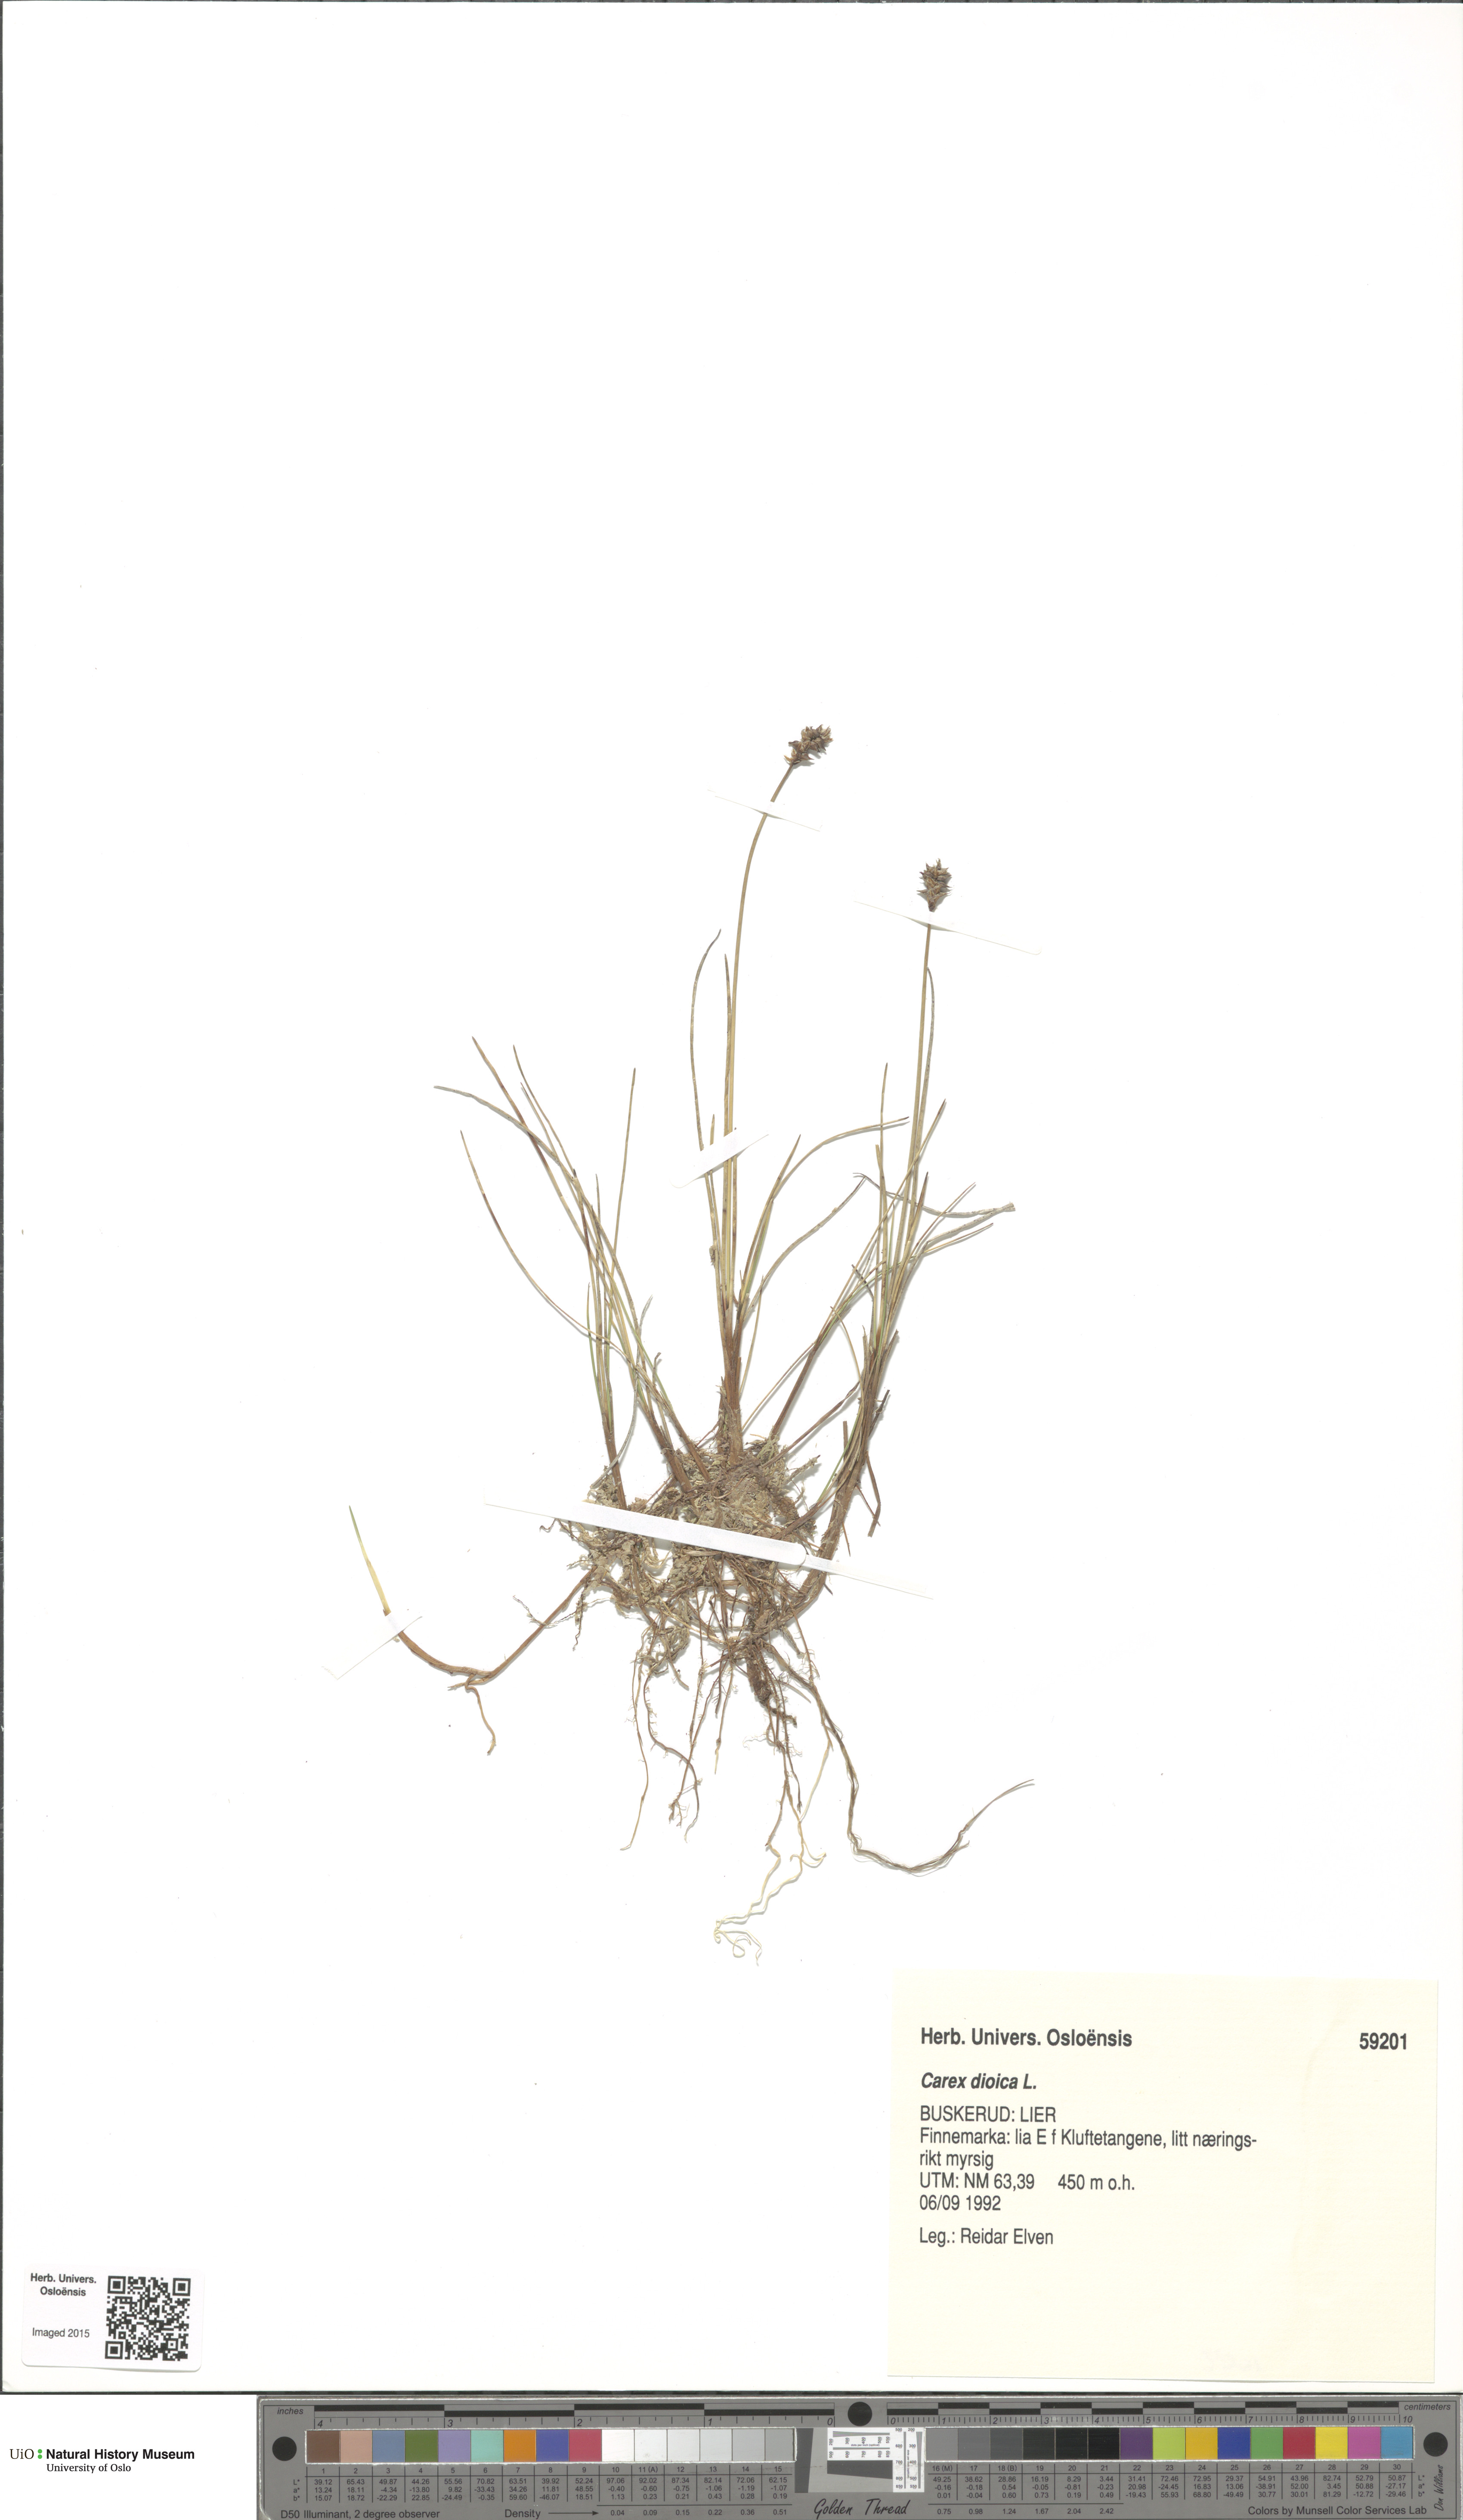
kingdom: Plantae
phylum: Tracheophyta
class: Liliopsida
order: Poales
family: Cyperaceae
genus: Carex
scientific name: Carex dioica
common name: Dioecious sedge
